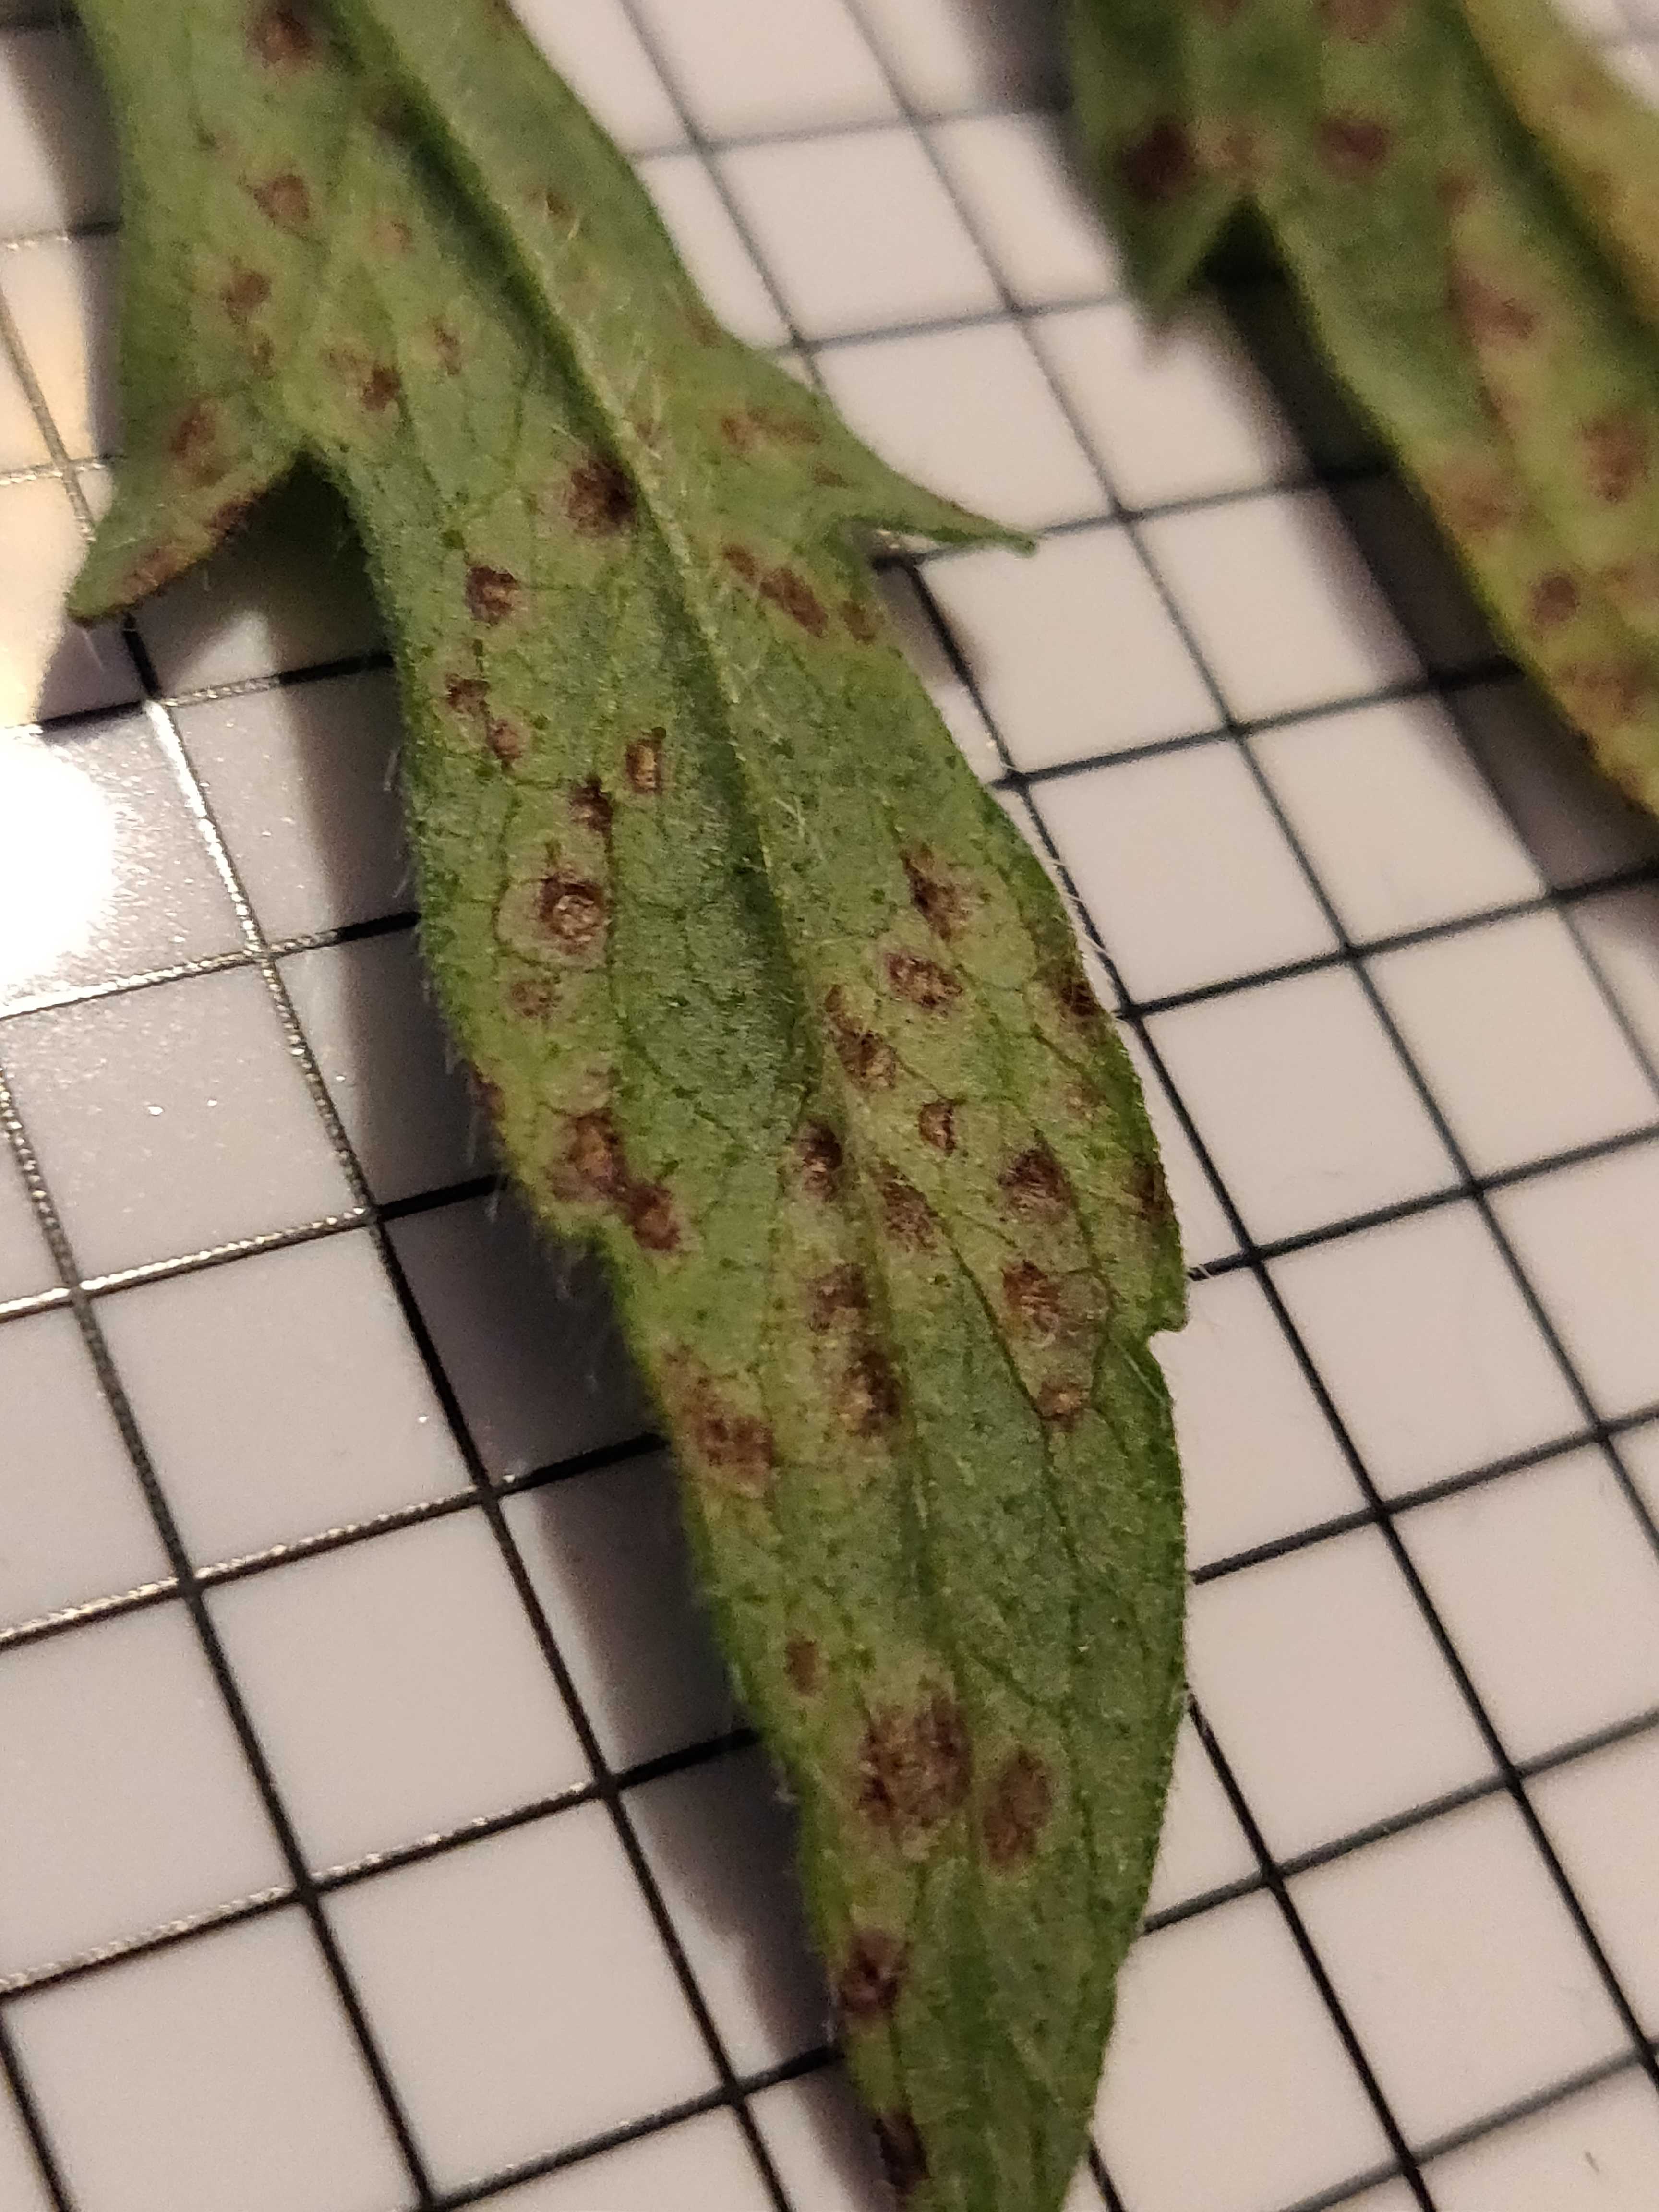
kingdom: Chromista
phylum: Oomycota
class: Peronosporea
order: Peronosporales
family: Peronosporaceae
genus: Peronospora
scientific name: Peronospora knautiae
